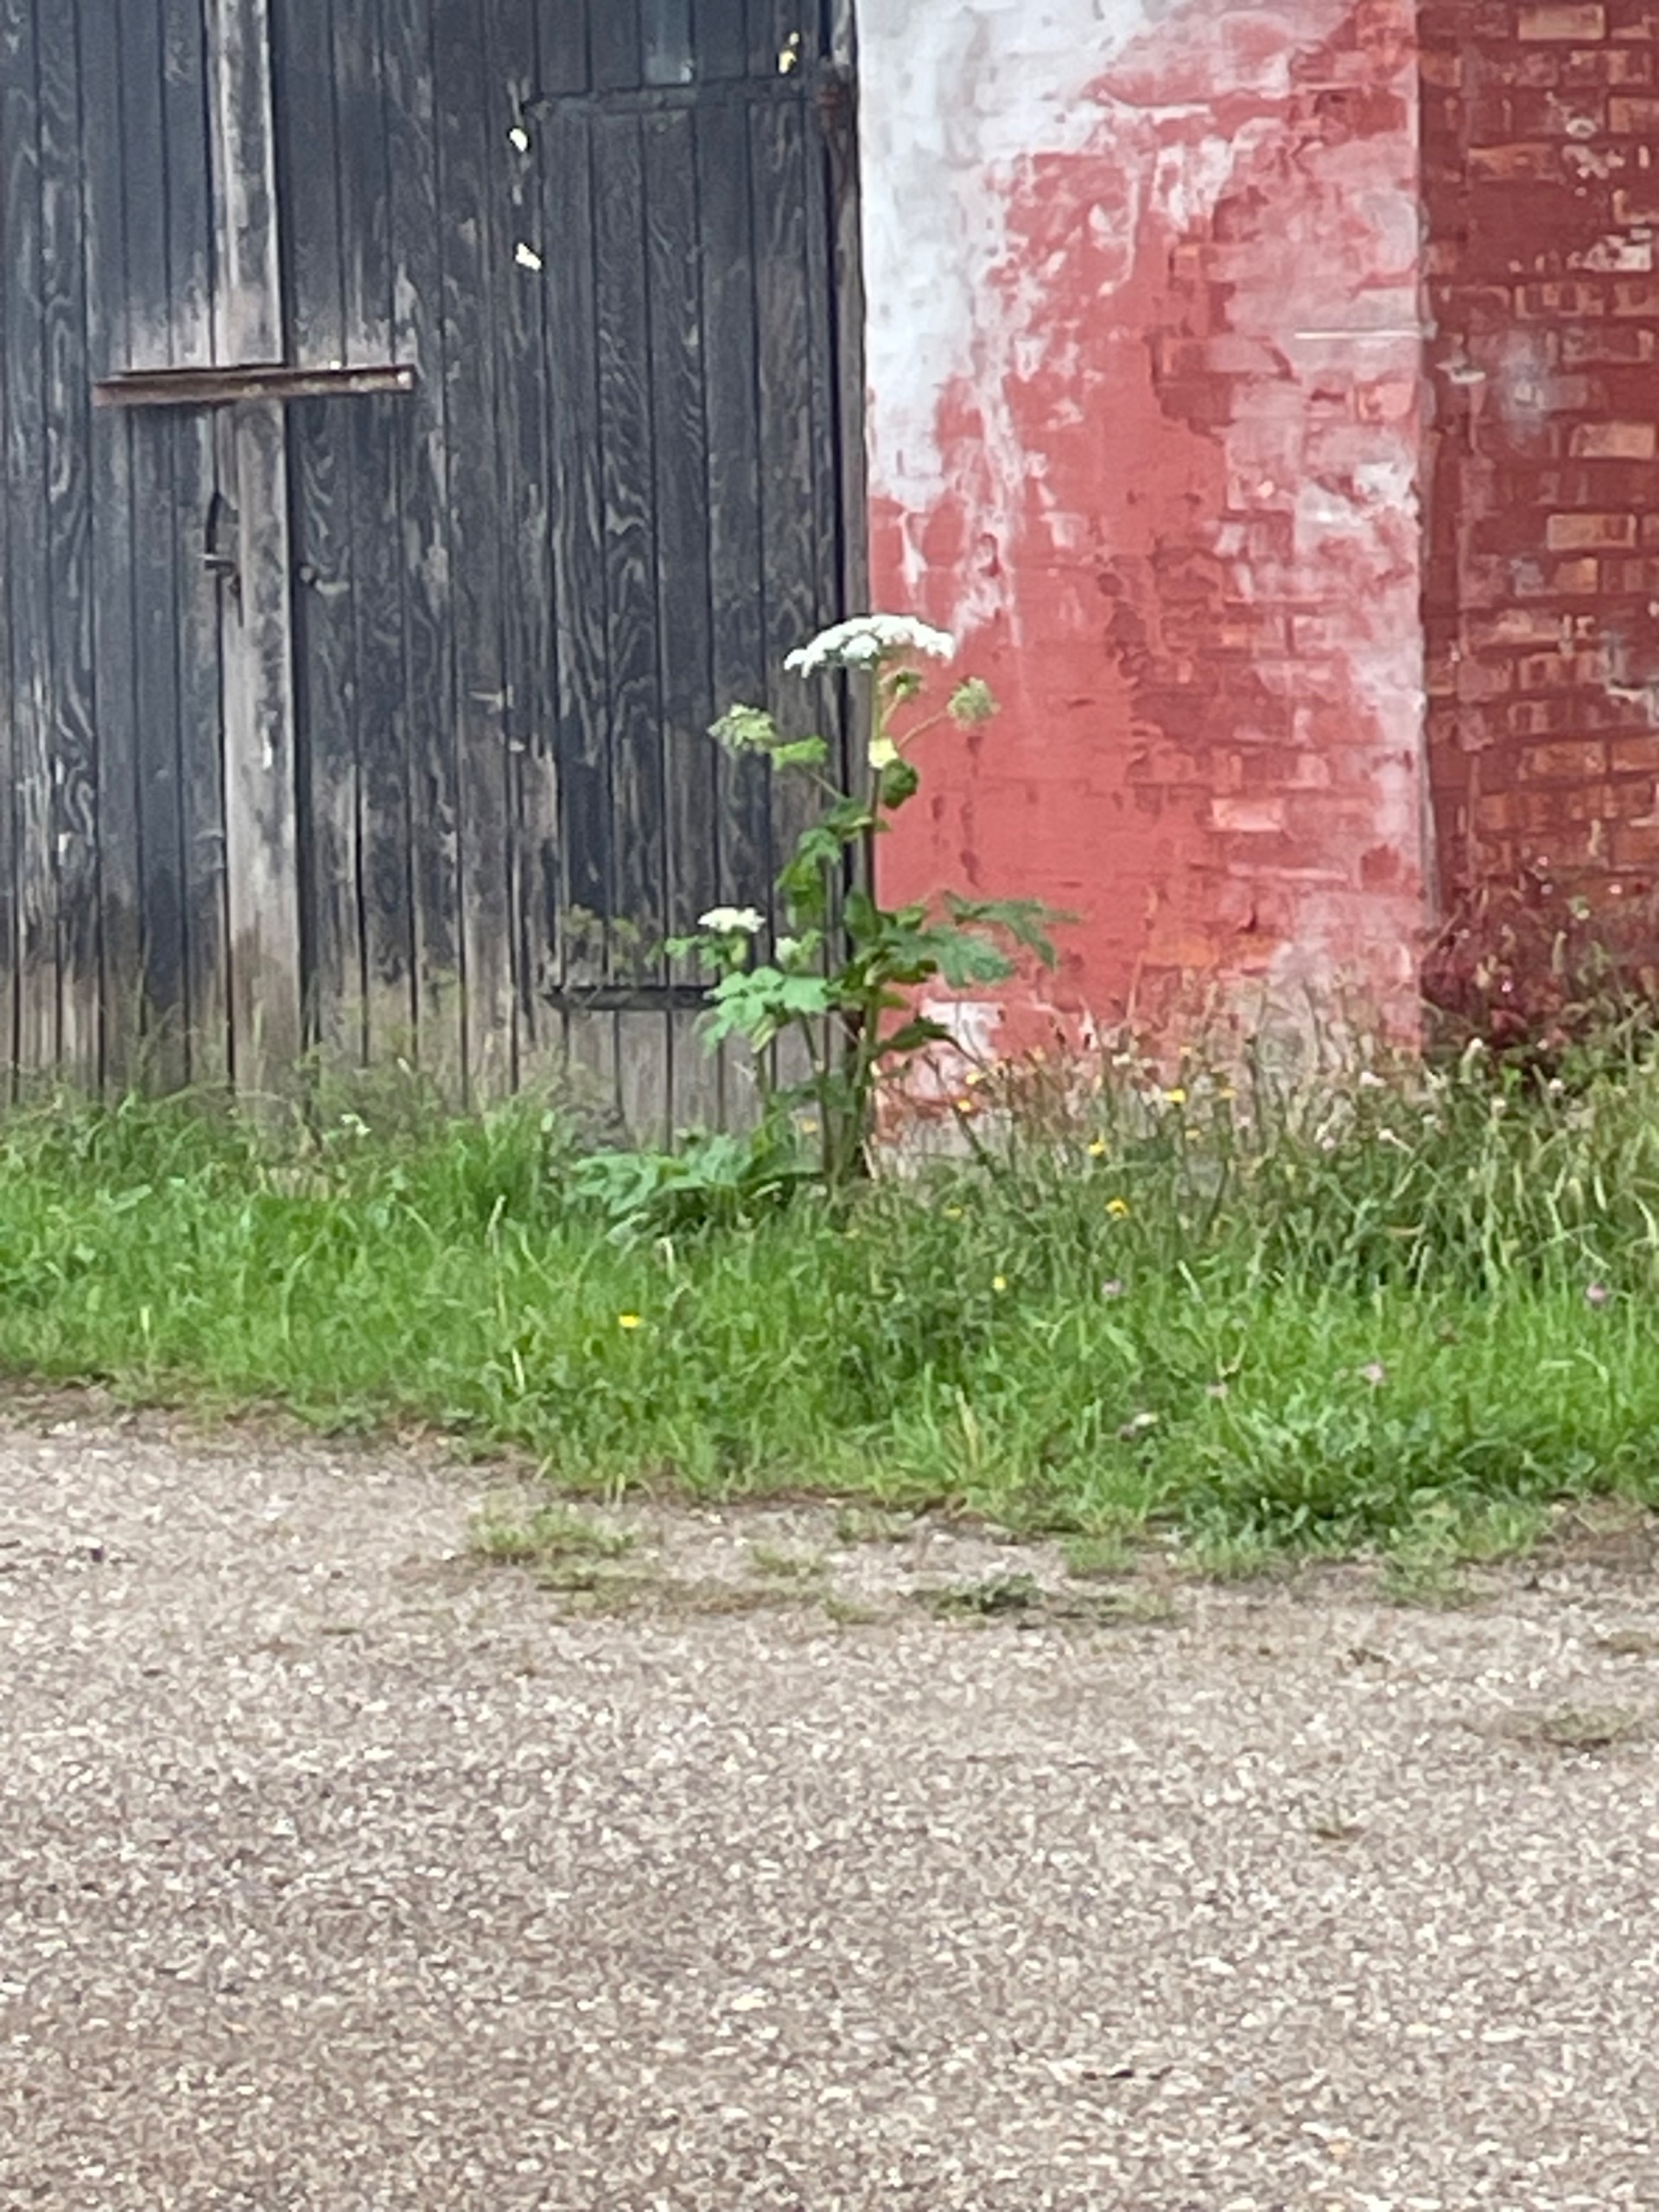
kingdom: Plantae
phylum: Tracheophyta
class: Magnoliopsida
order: Apiales
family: Apiaceae
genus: Heracleum
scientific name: Heracleum mantegazzianum
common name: Kæmpe-bjørneklo
